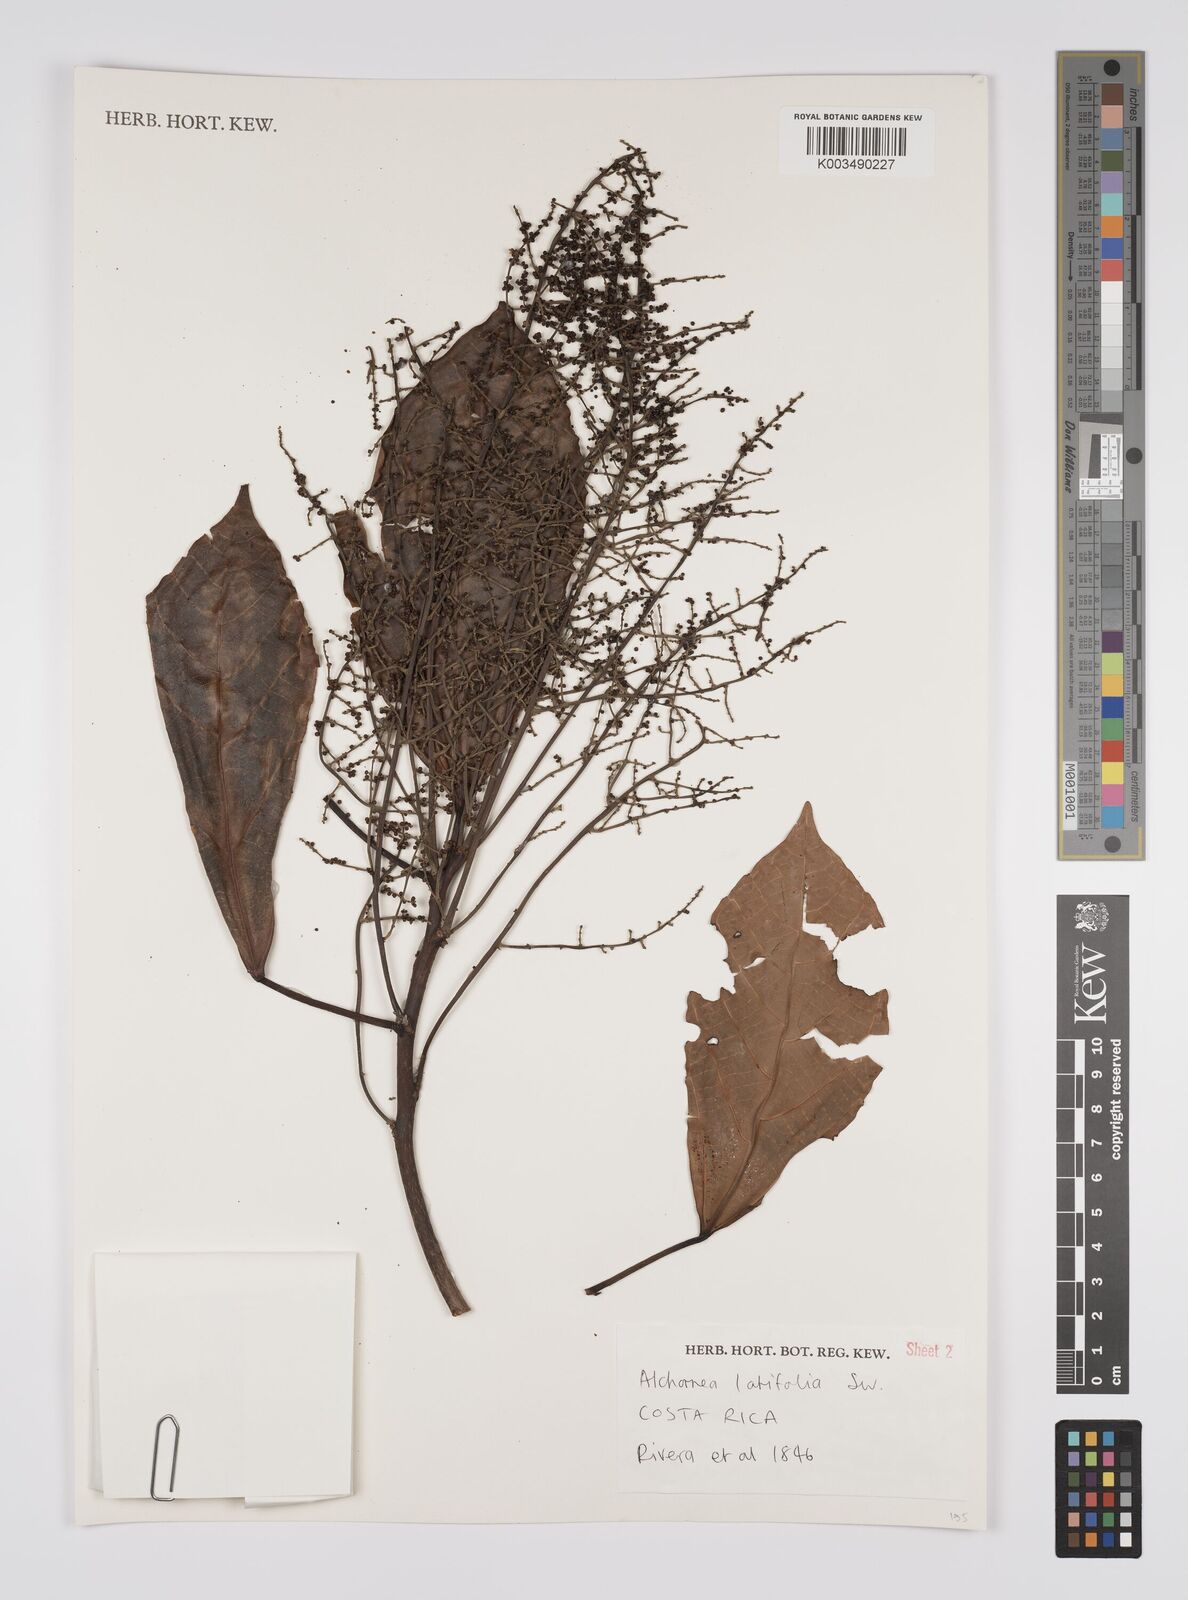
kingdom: Plantae
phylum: Tracheophyta
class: Magnoliopsida
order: Malpighiales
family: Euphorbiaceae
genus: Alchornea
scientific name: Alchornea latifolia
